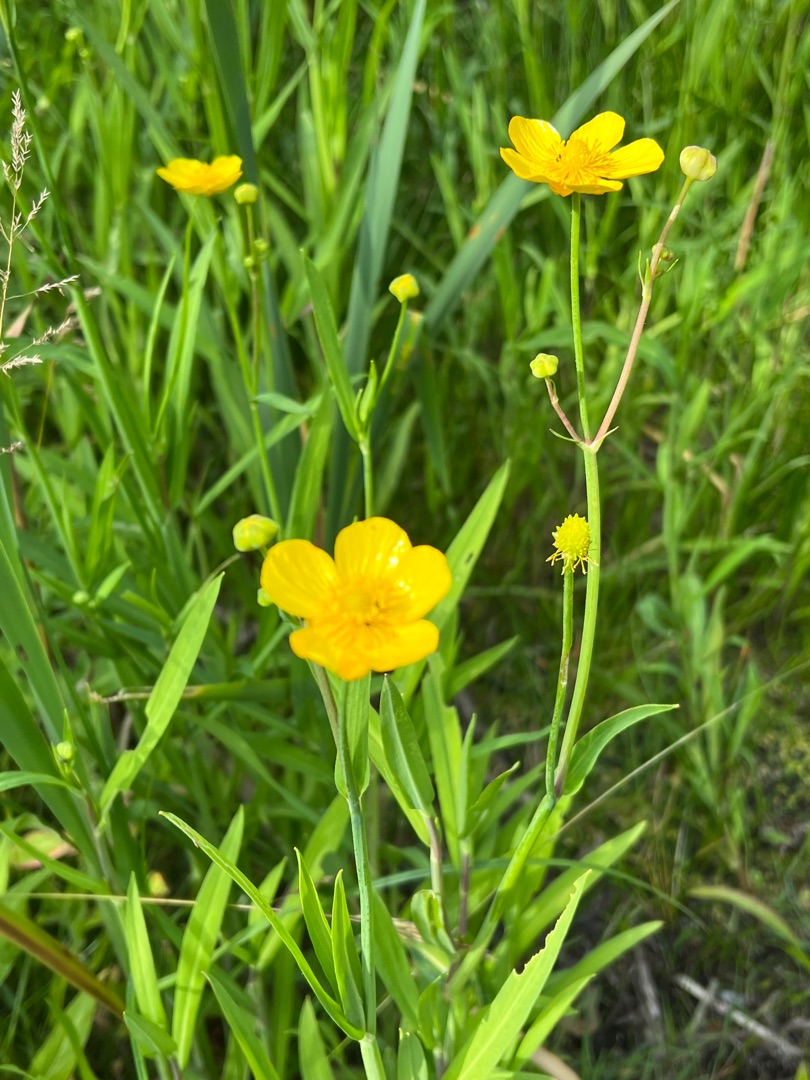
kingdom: Plantae
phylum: Tracheophyta
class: Magnoliopsida
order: Ranunculales
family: Ranunculaceae
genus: Ranunculus
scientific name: Ranunculus lingua
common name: Langbladet ranunkel
